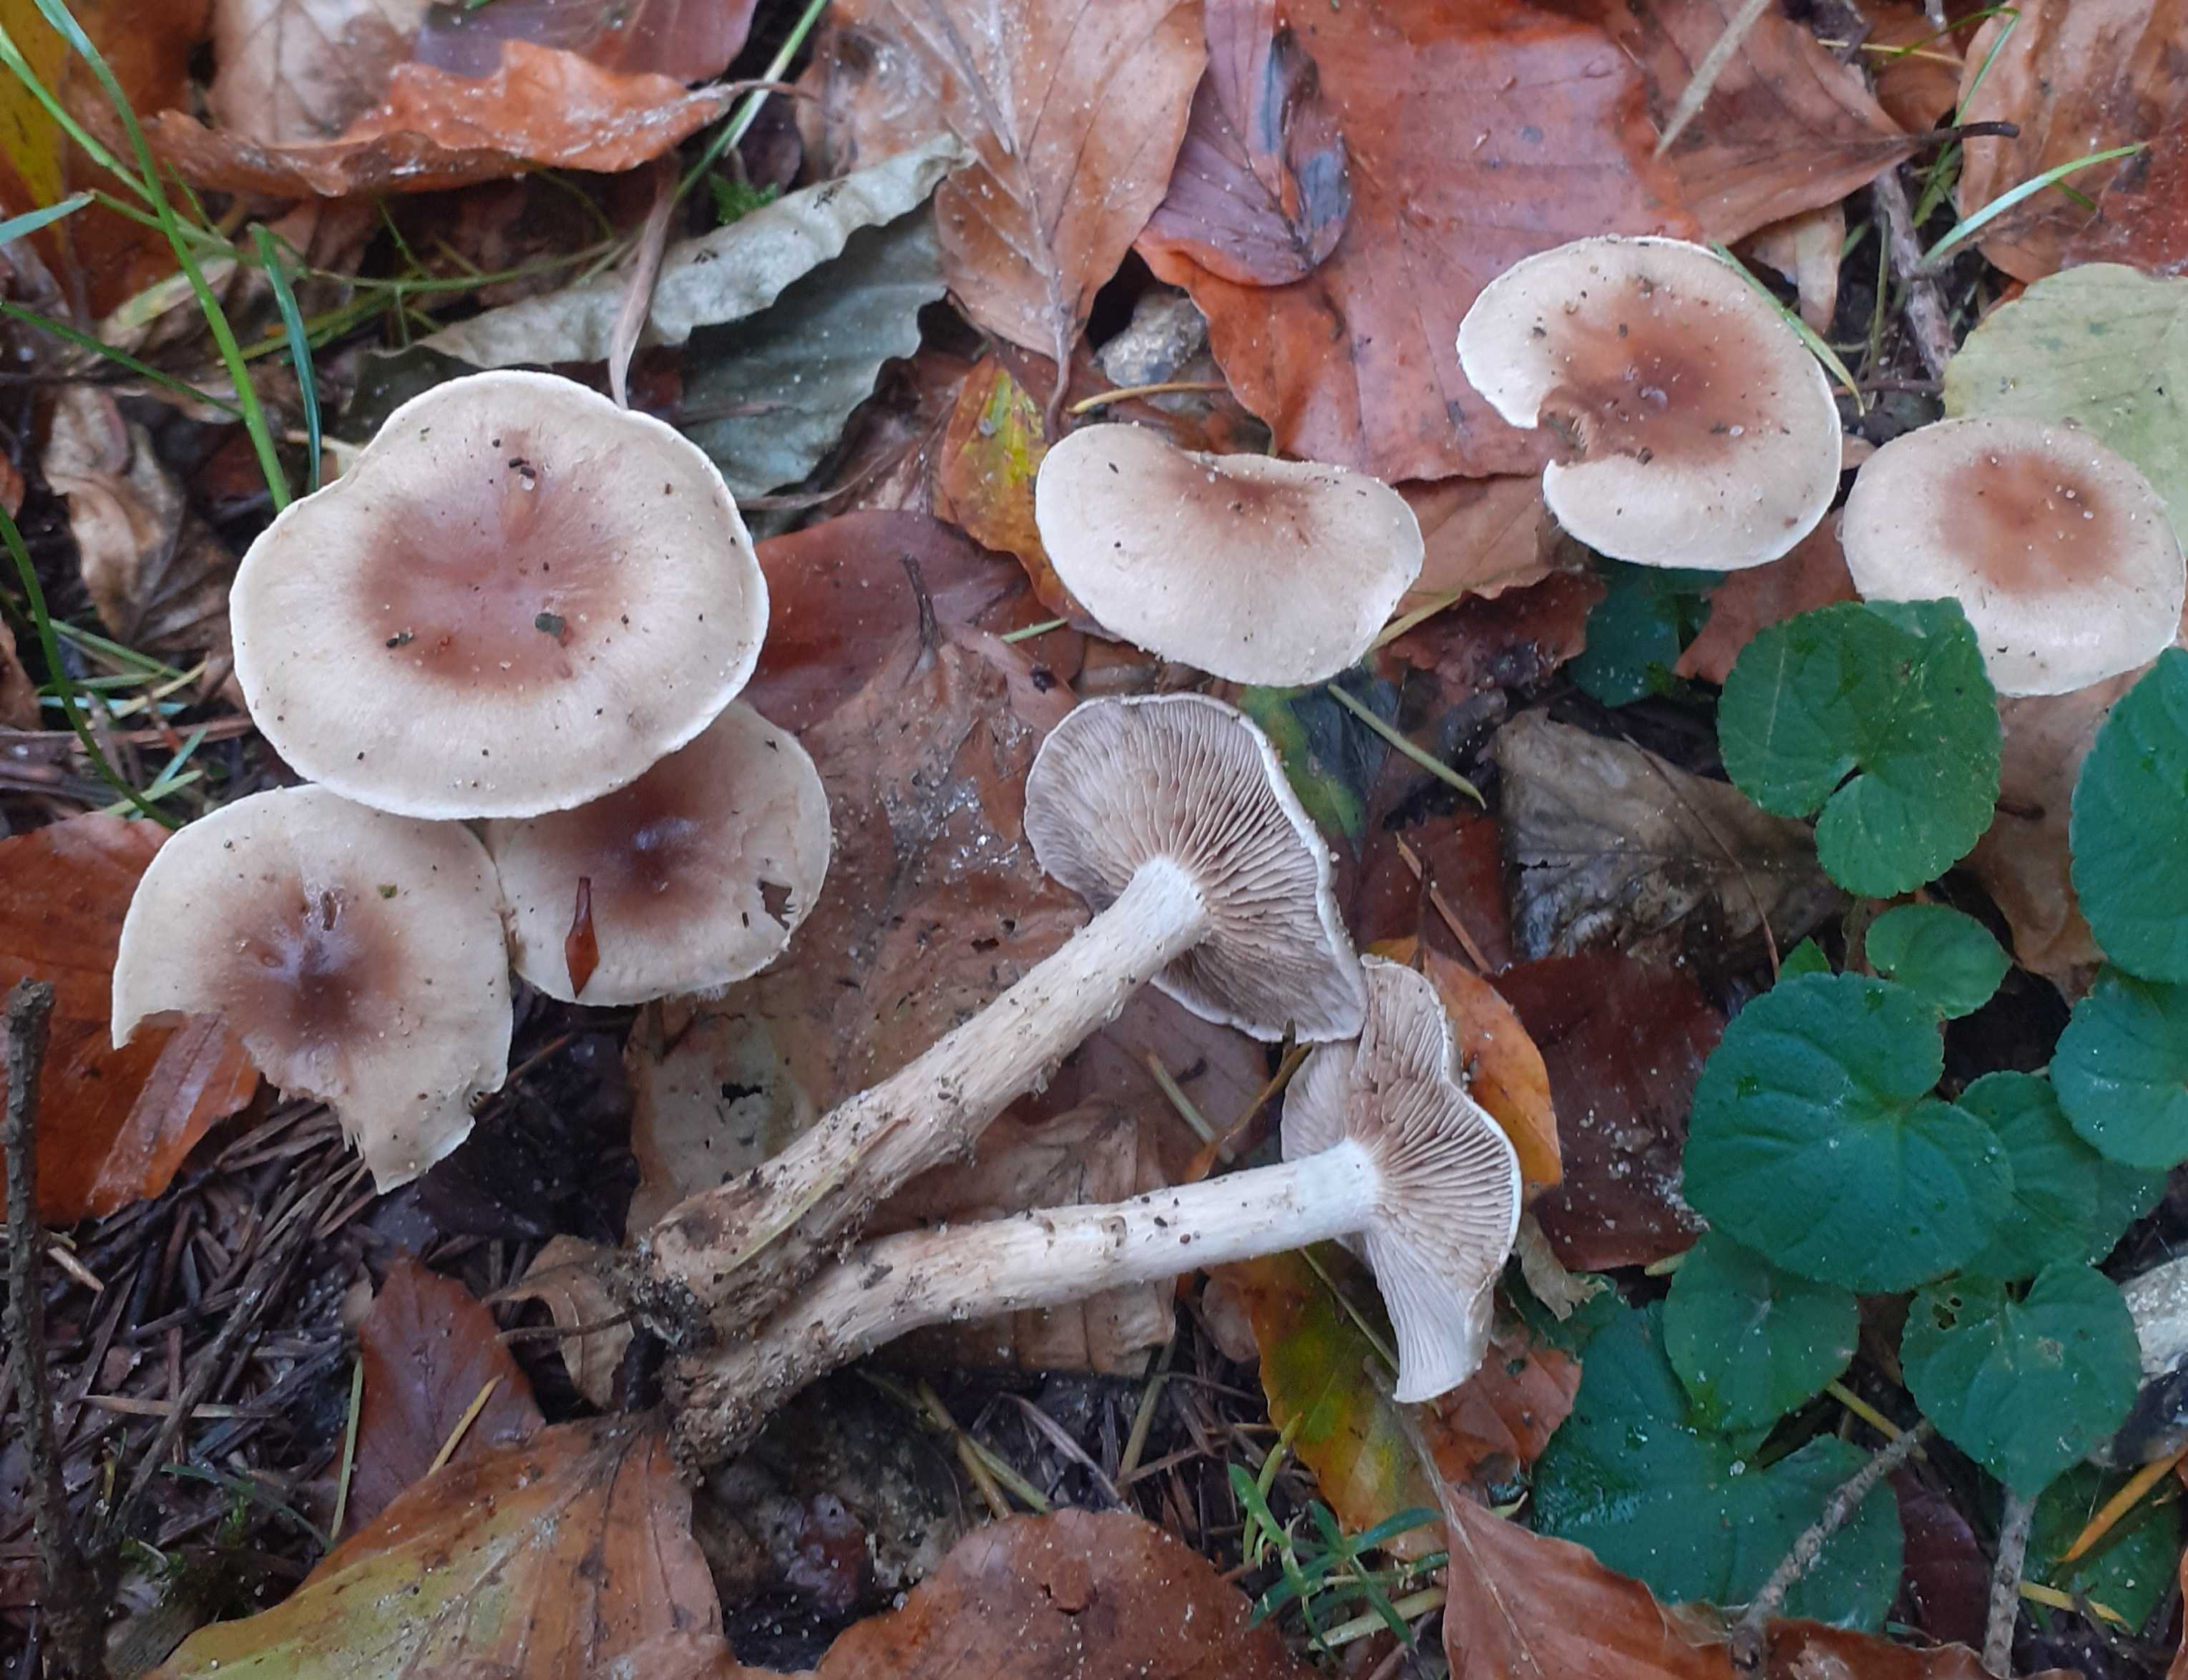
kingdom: Fungi
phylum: Basidiomycota
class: Agaricomycetes
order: Agaricales
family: Hymenogastraceae
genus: Hebeloma
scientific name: Hebeloma mesophaeum
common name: lerbrun tåreblad
